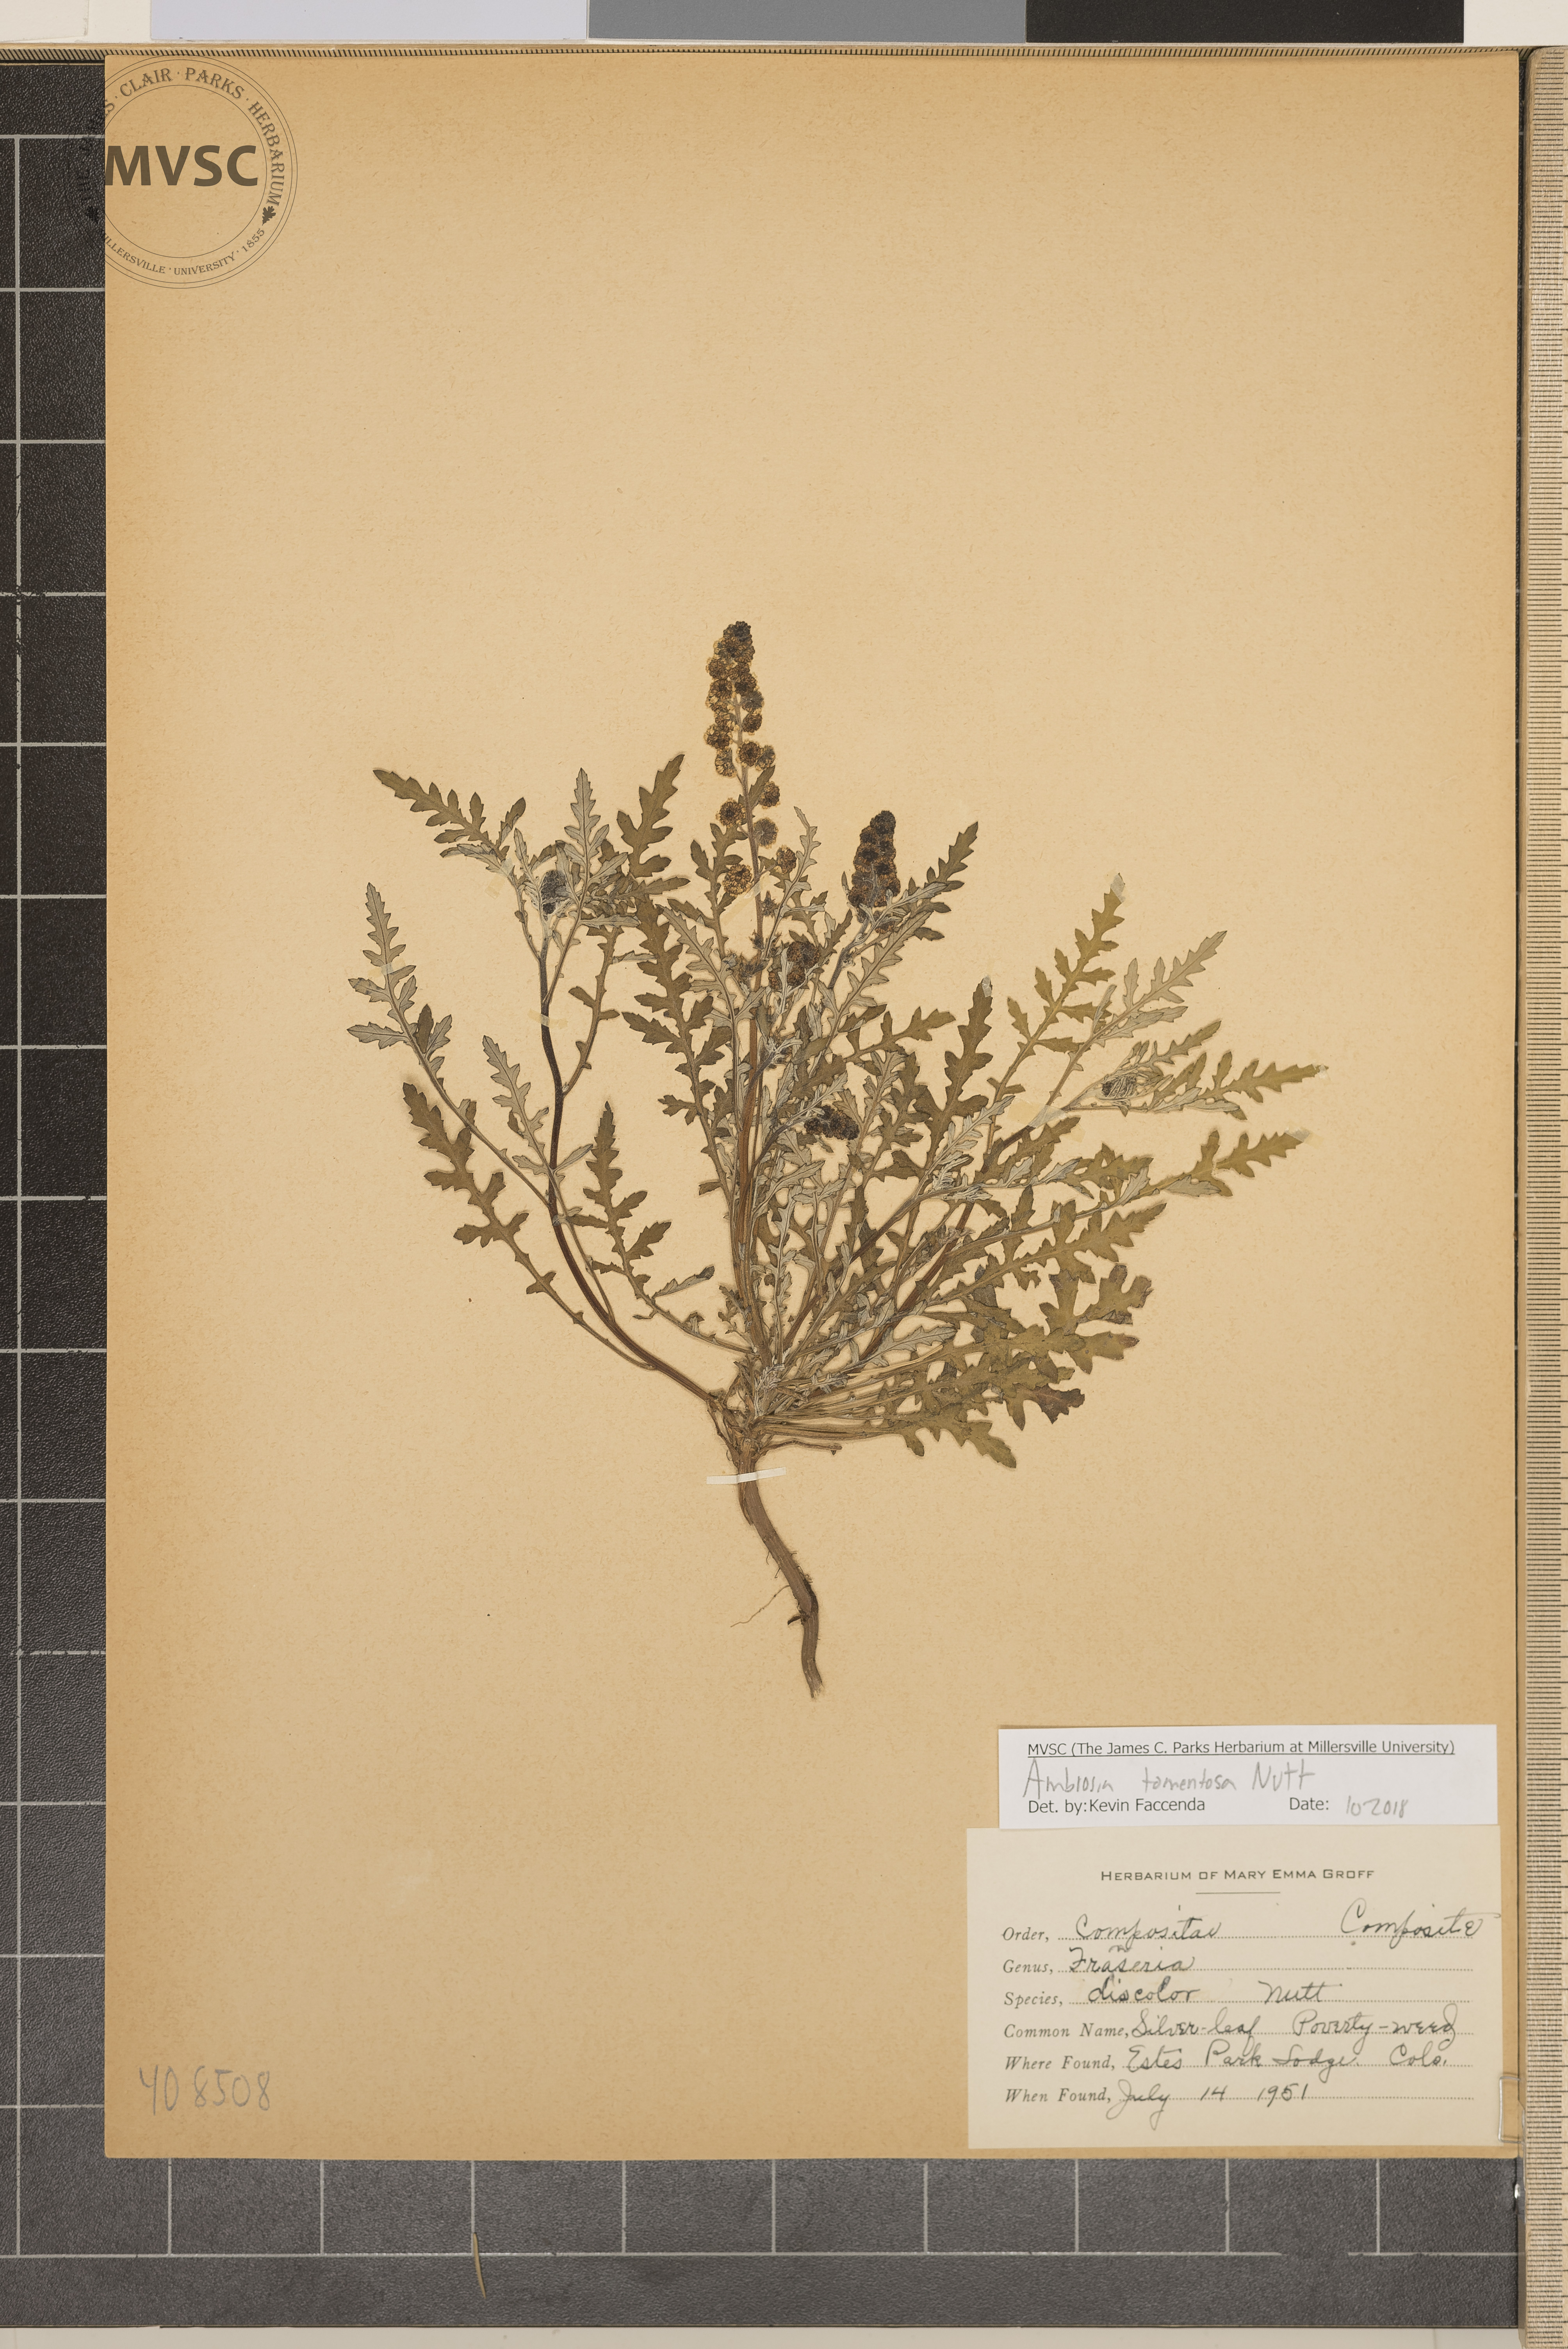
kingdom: Plantae
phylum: Tracheophyta
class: Magnoliopsida
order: Asterales
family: Asteraceae
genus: Ambrosia
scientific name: Ambrosia tomentosa
